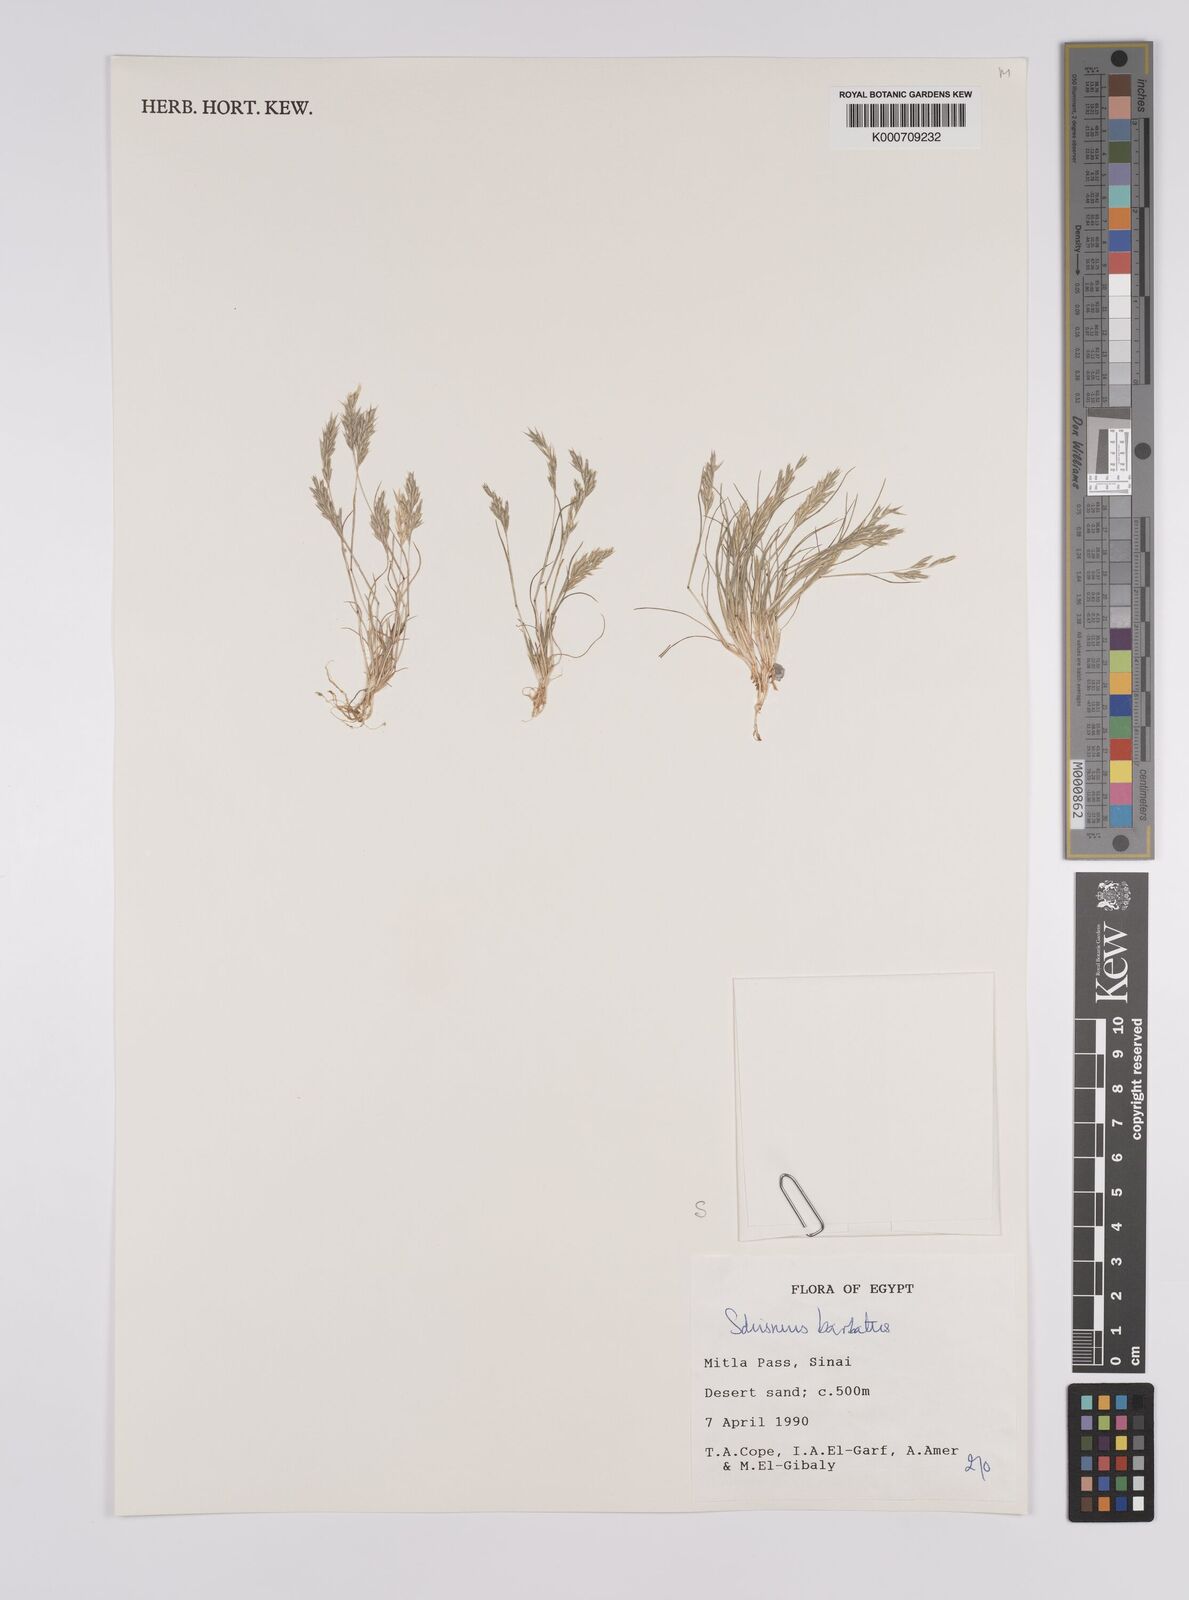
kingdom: Plantae
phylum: Tracheophyta
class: Liliopsida
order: Poales
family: Poaceae
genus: Schismus
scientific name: Schismus barbatus
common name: Kelch-grass
